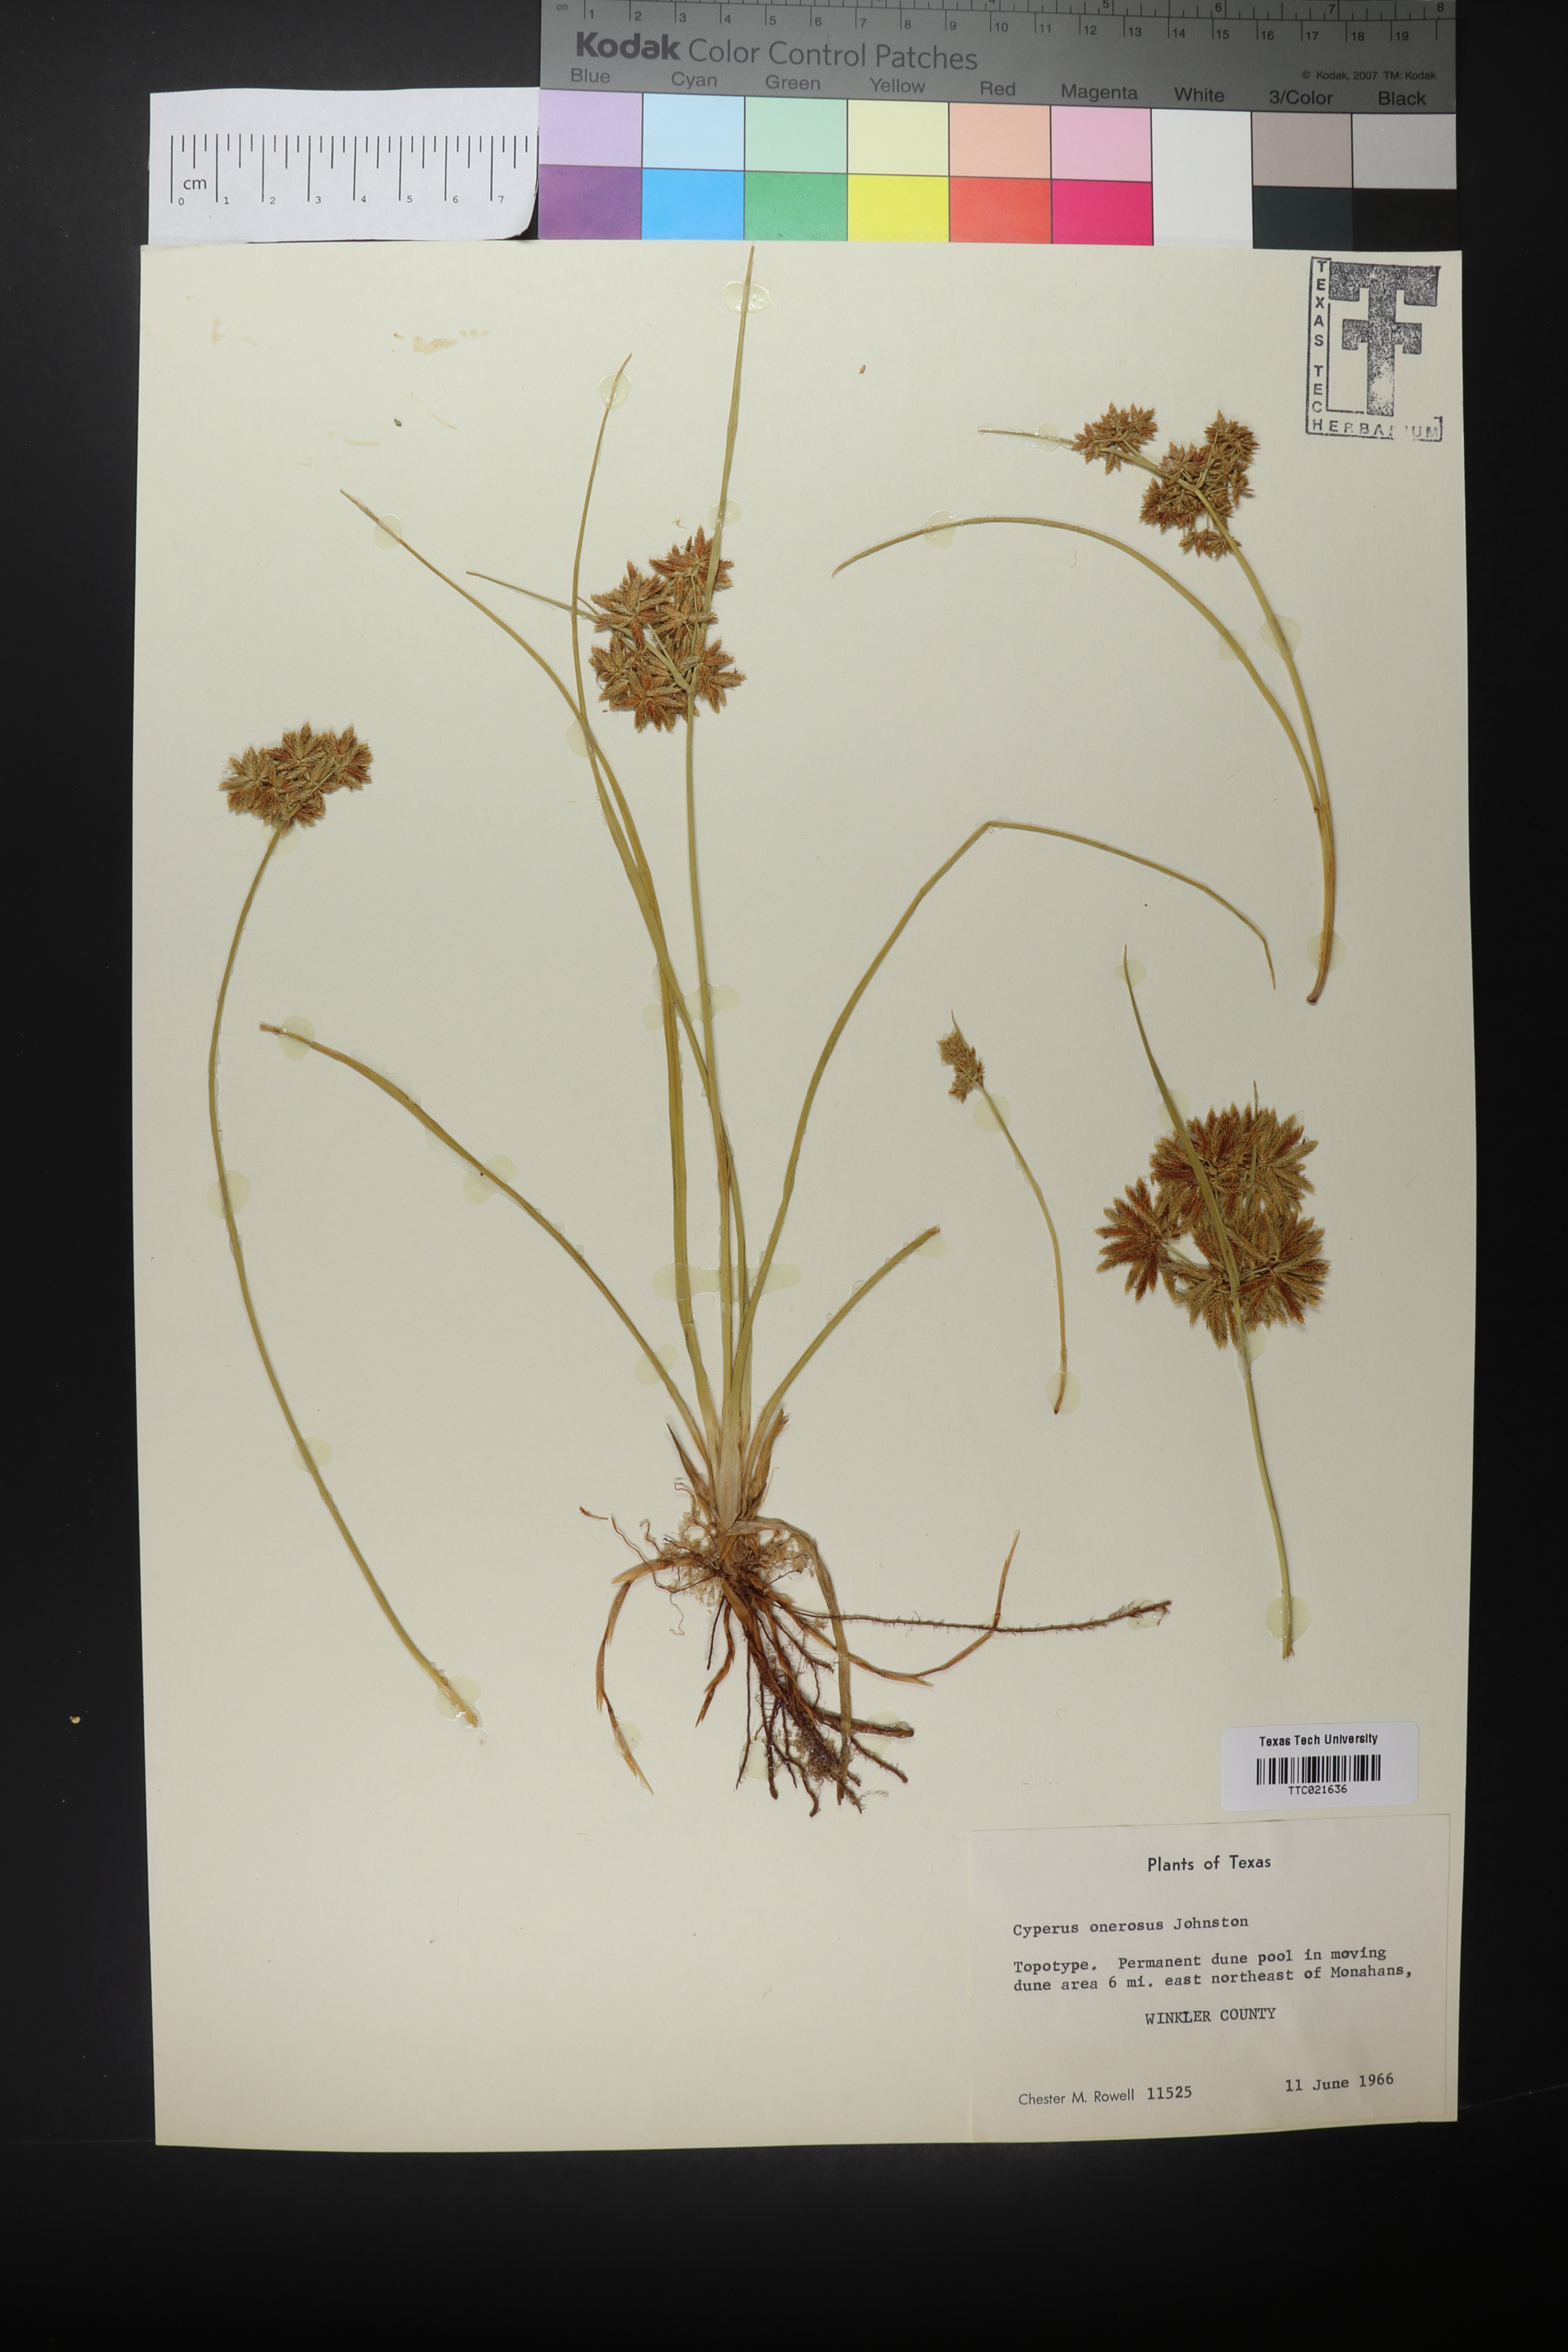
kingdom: Plantae
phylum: Tracheophyta
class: Liliopsida
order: Poales
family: Cyperaceae
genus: Cyperus
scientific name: Cyperus onerosus
